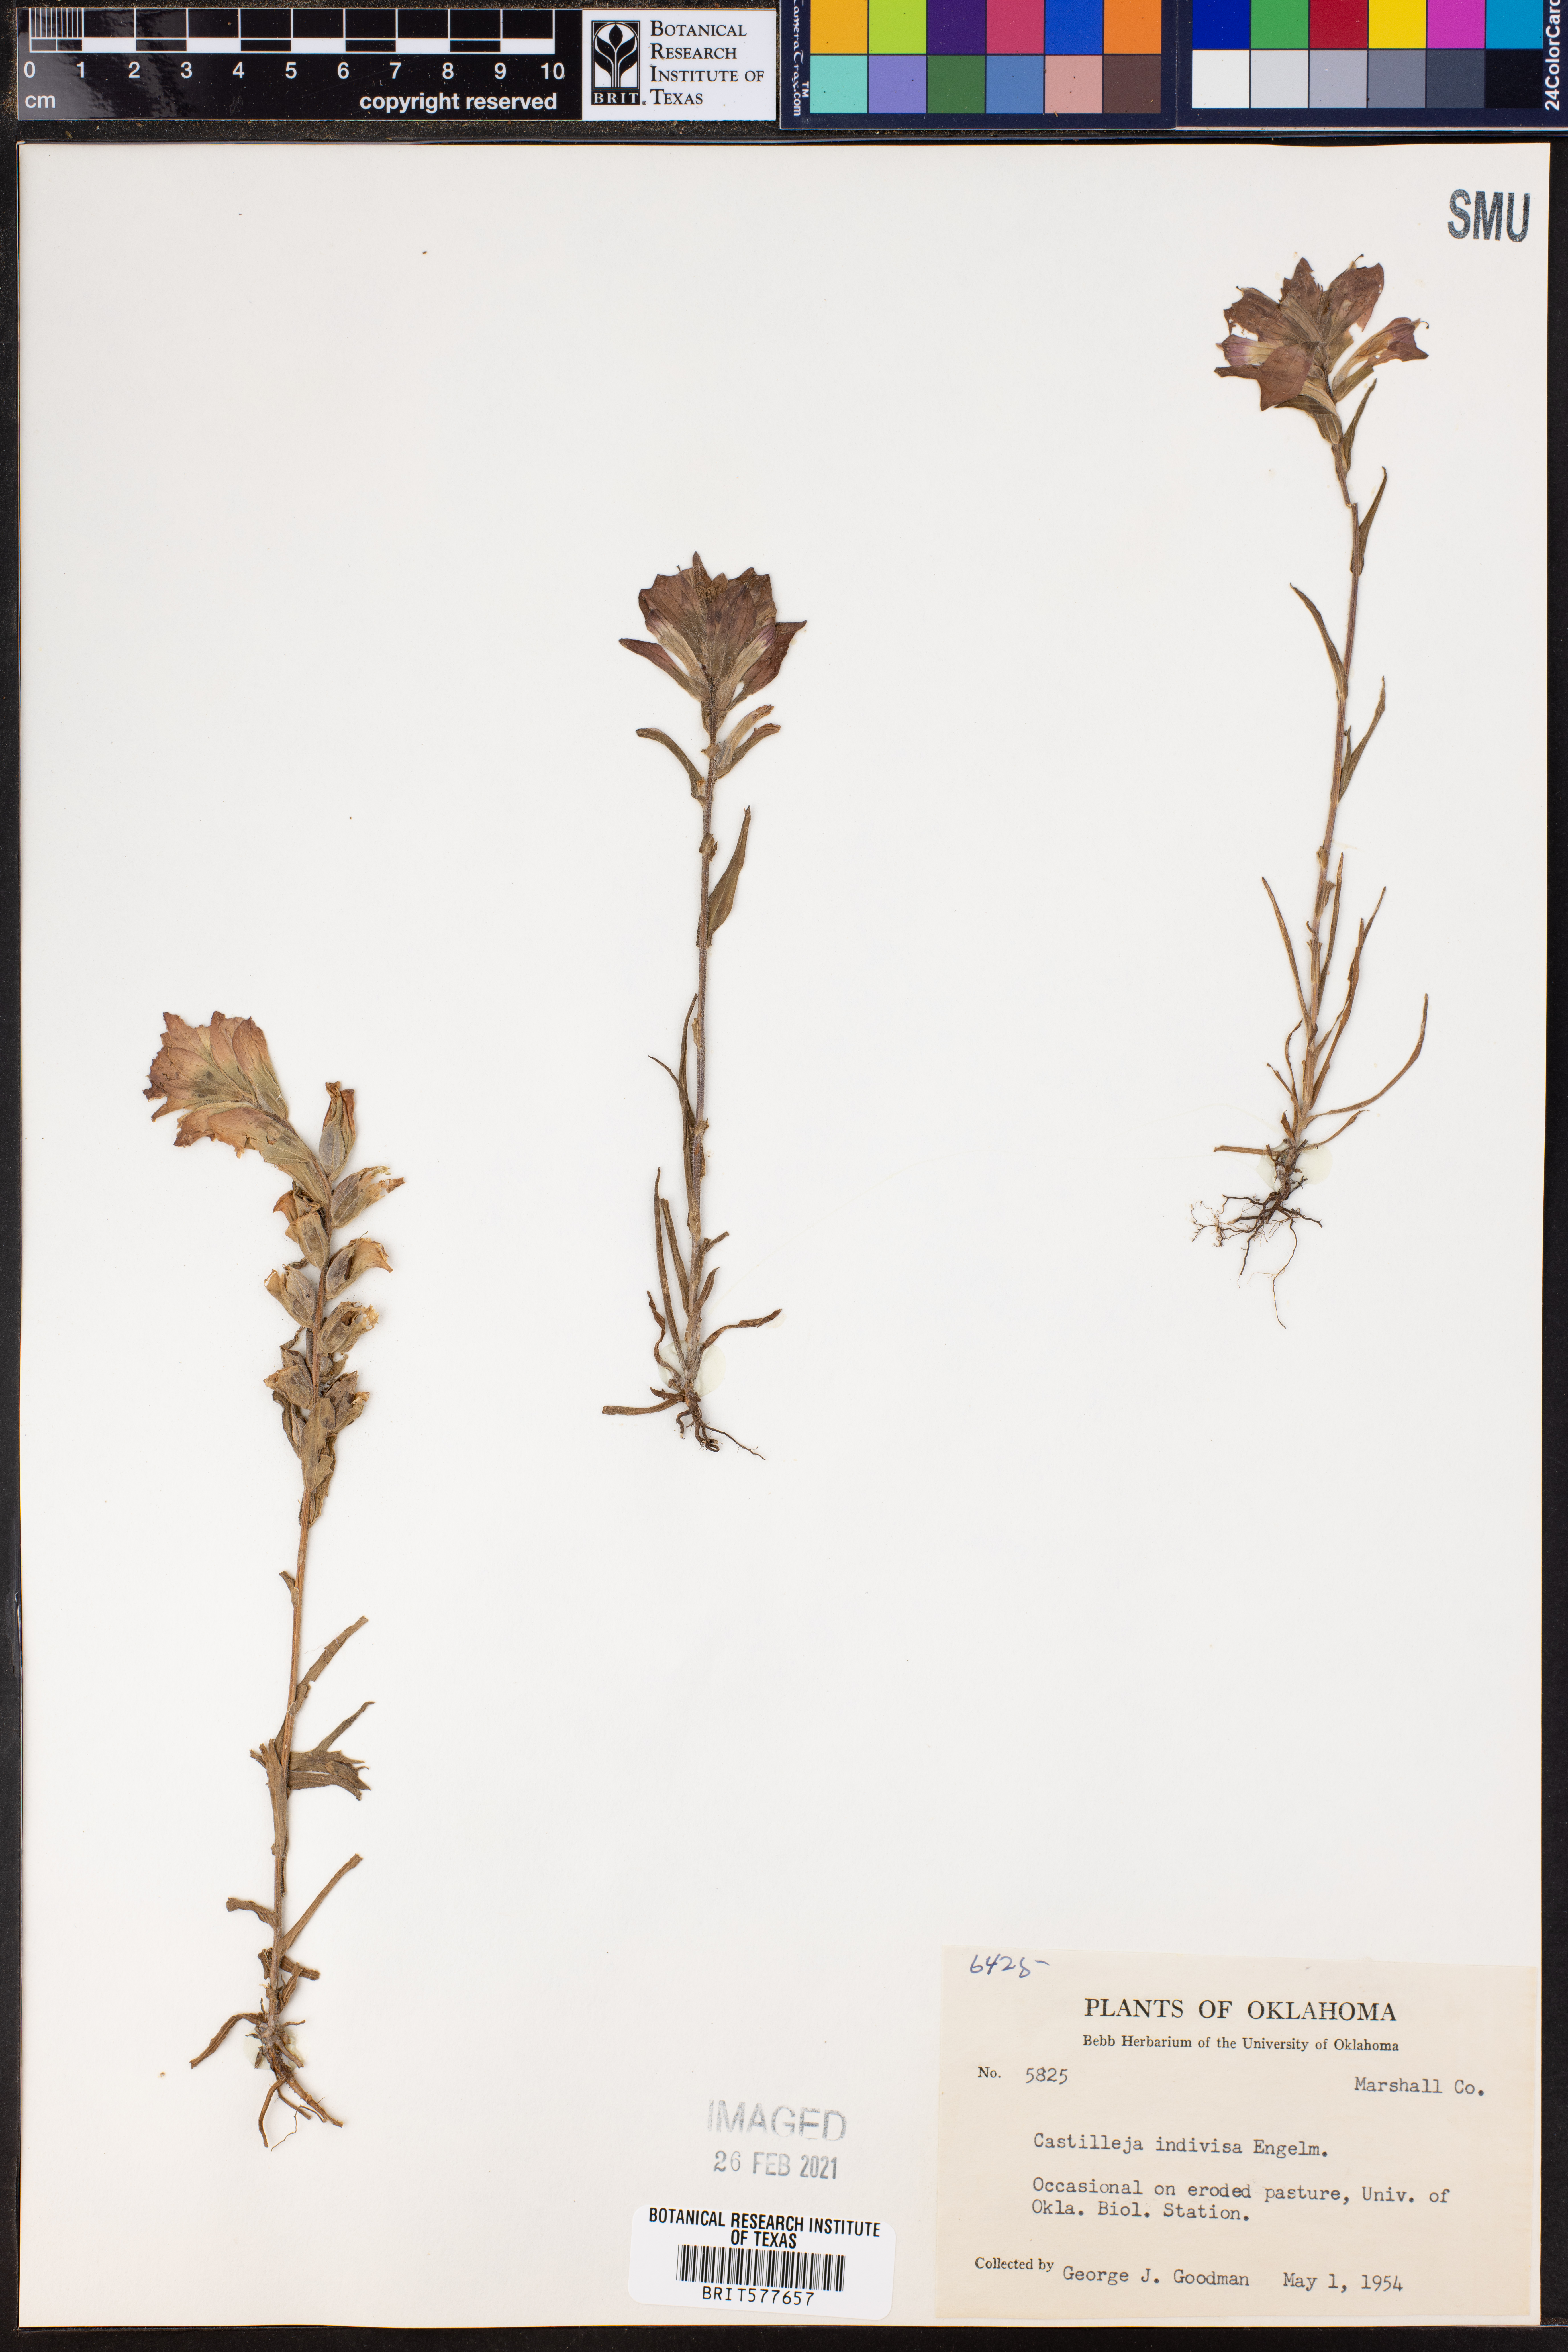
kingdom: Plantae
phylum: Tracheophyta
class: Magnoliopsida
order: Lamiales
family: Orobanchaceae
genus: Castilleja
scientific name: Castilleja indivisa
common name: Texas paintbrush
